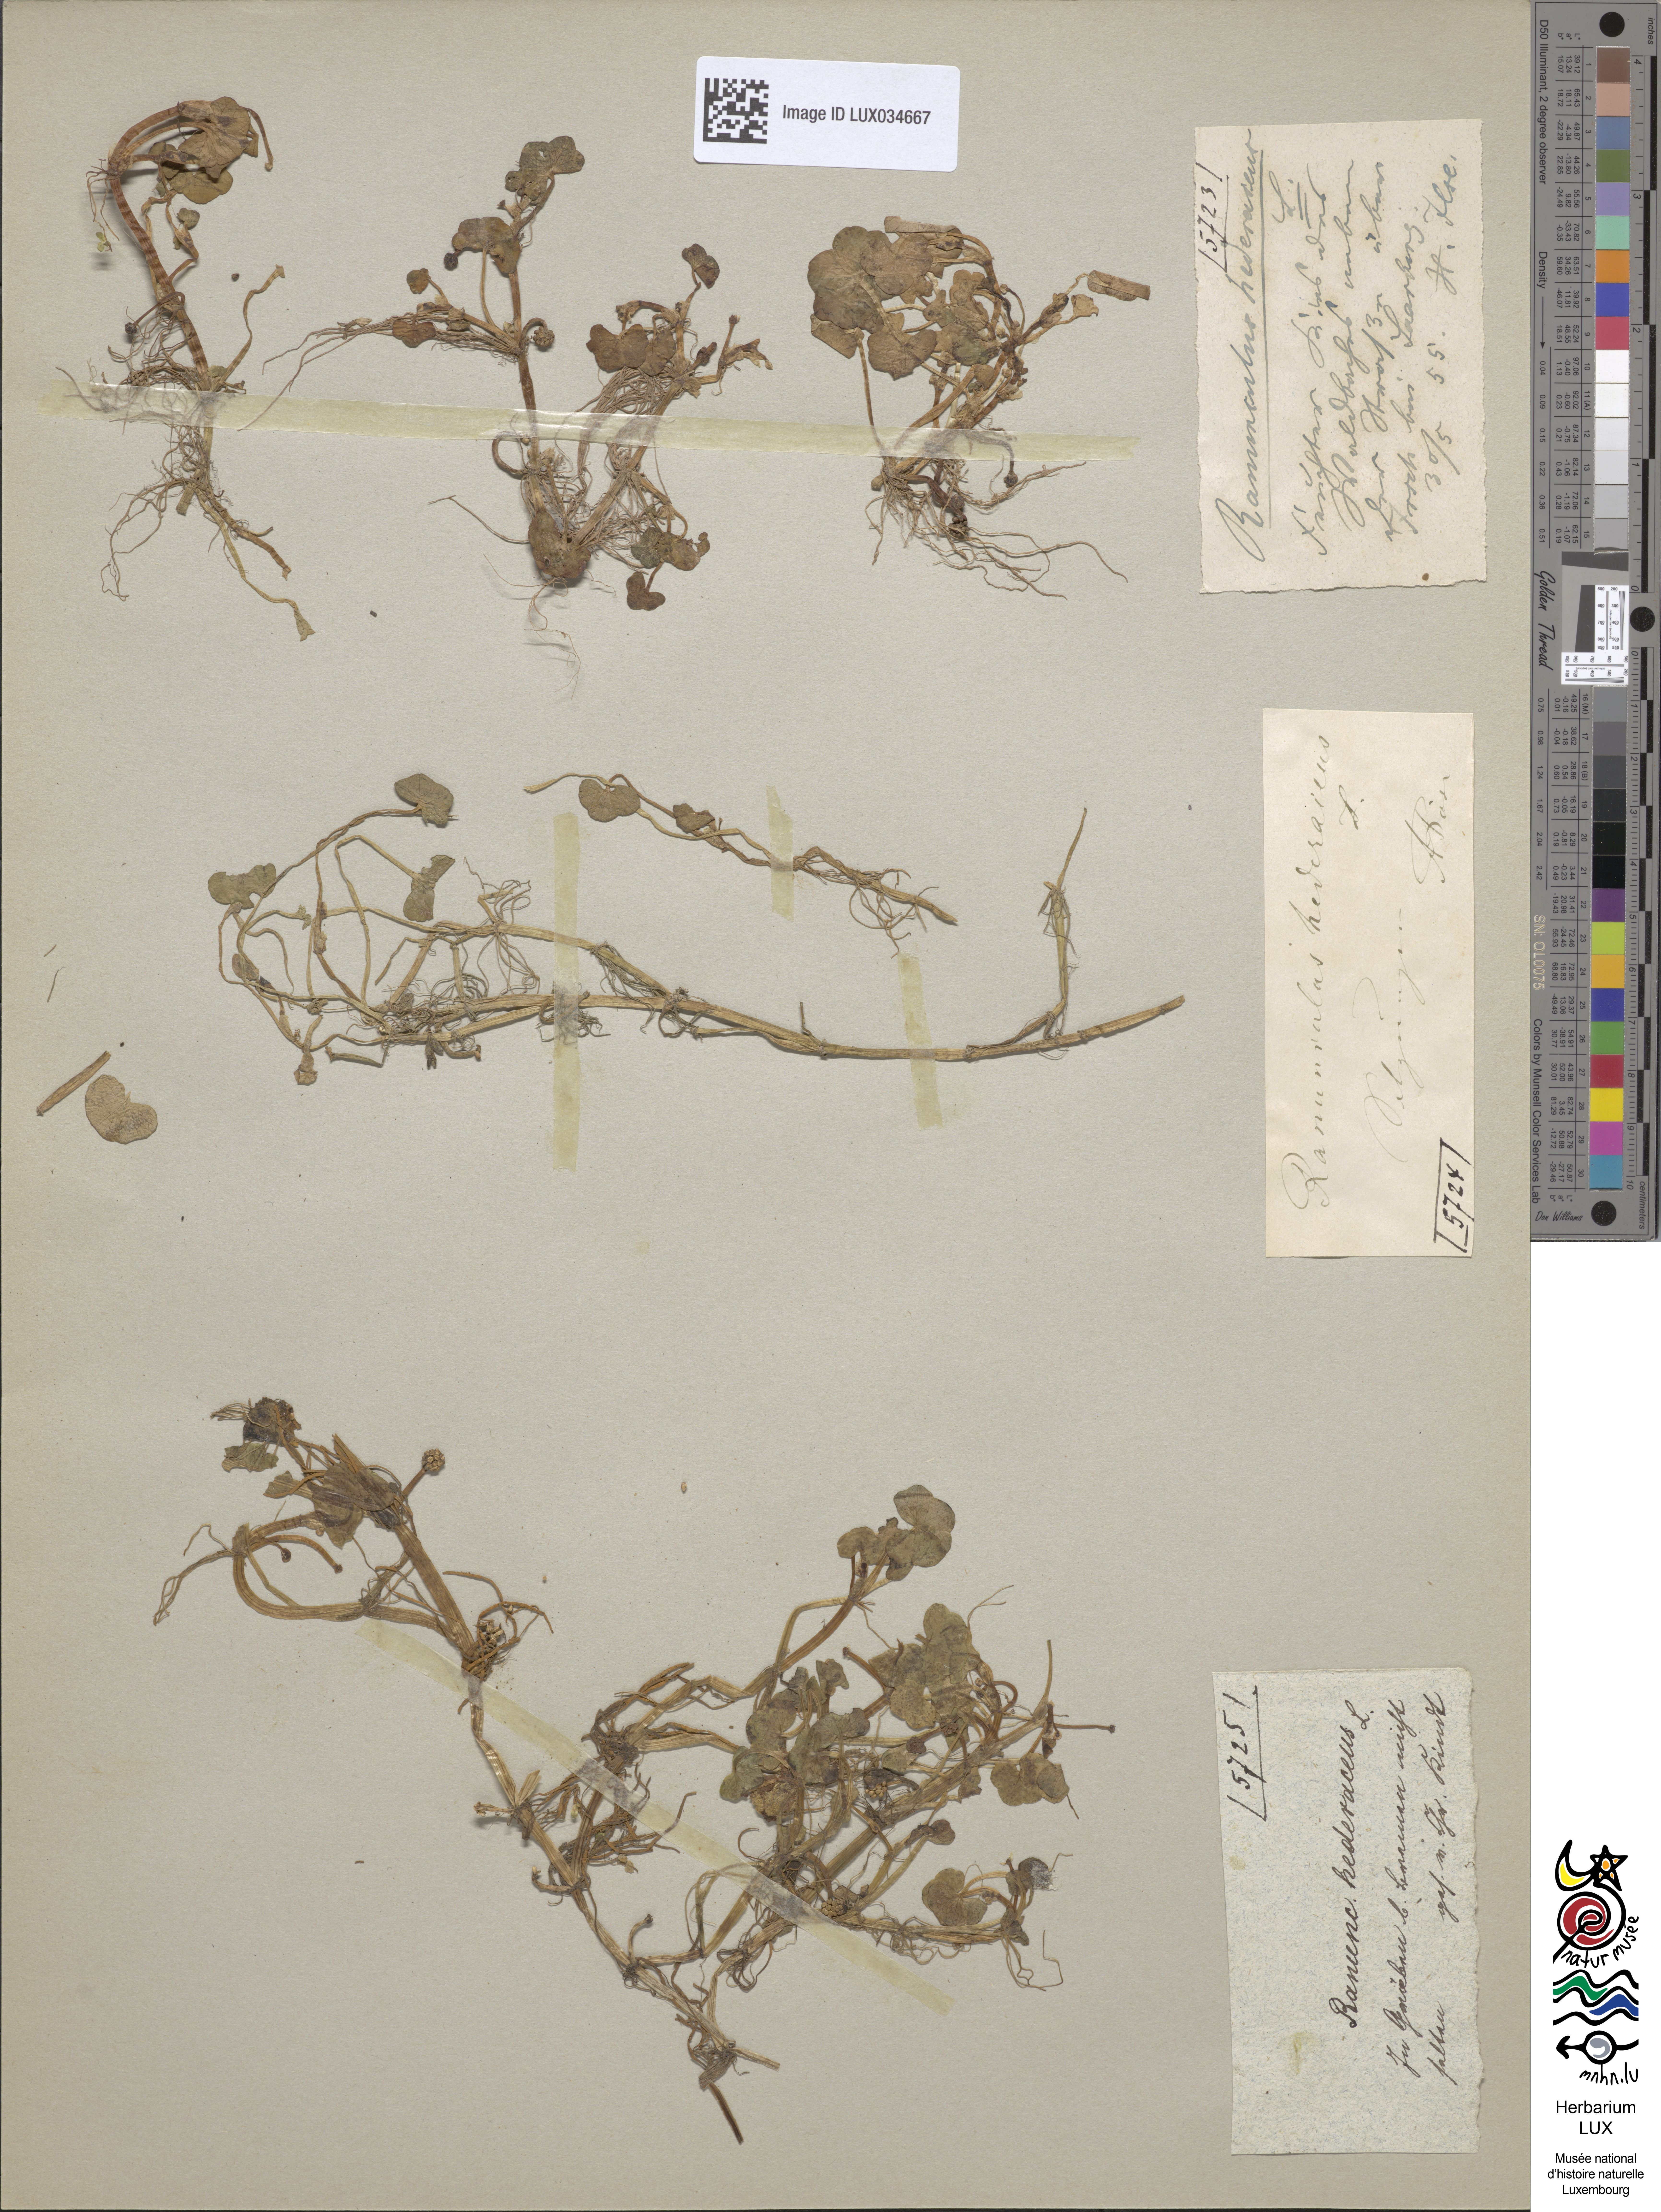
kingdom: Plantae
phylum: Tracheophyta
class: Magnoliopsida
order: Ranunculales
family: Ranunculaceae
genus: Ranunculus
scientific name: Ranunculus hederaceus
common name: Ivy-leaved crowfoot
